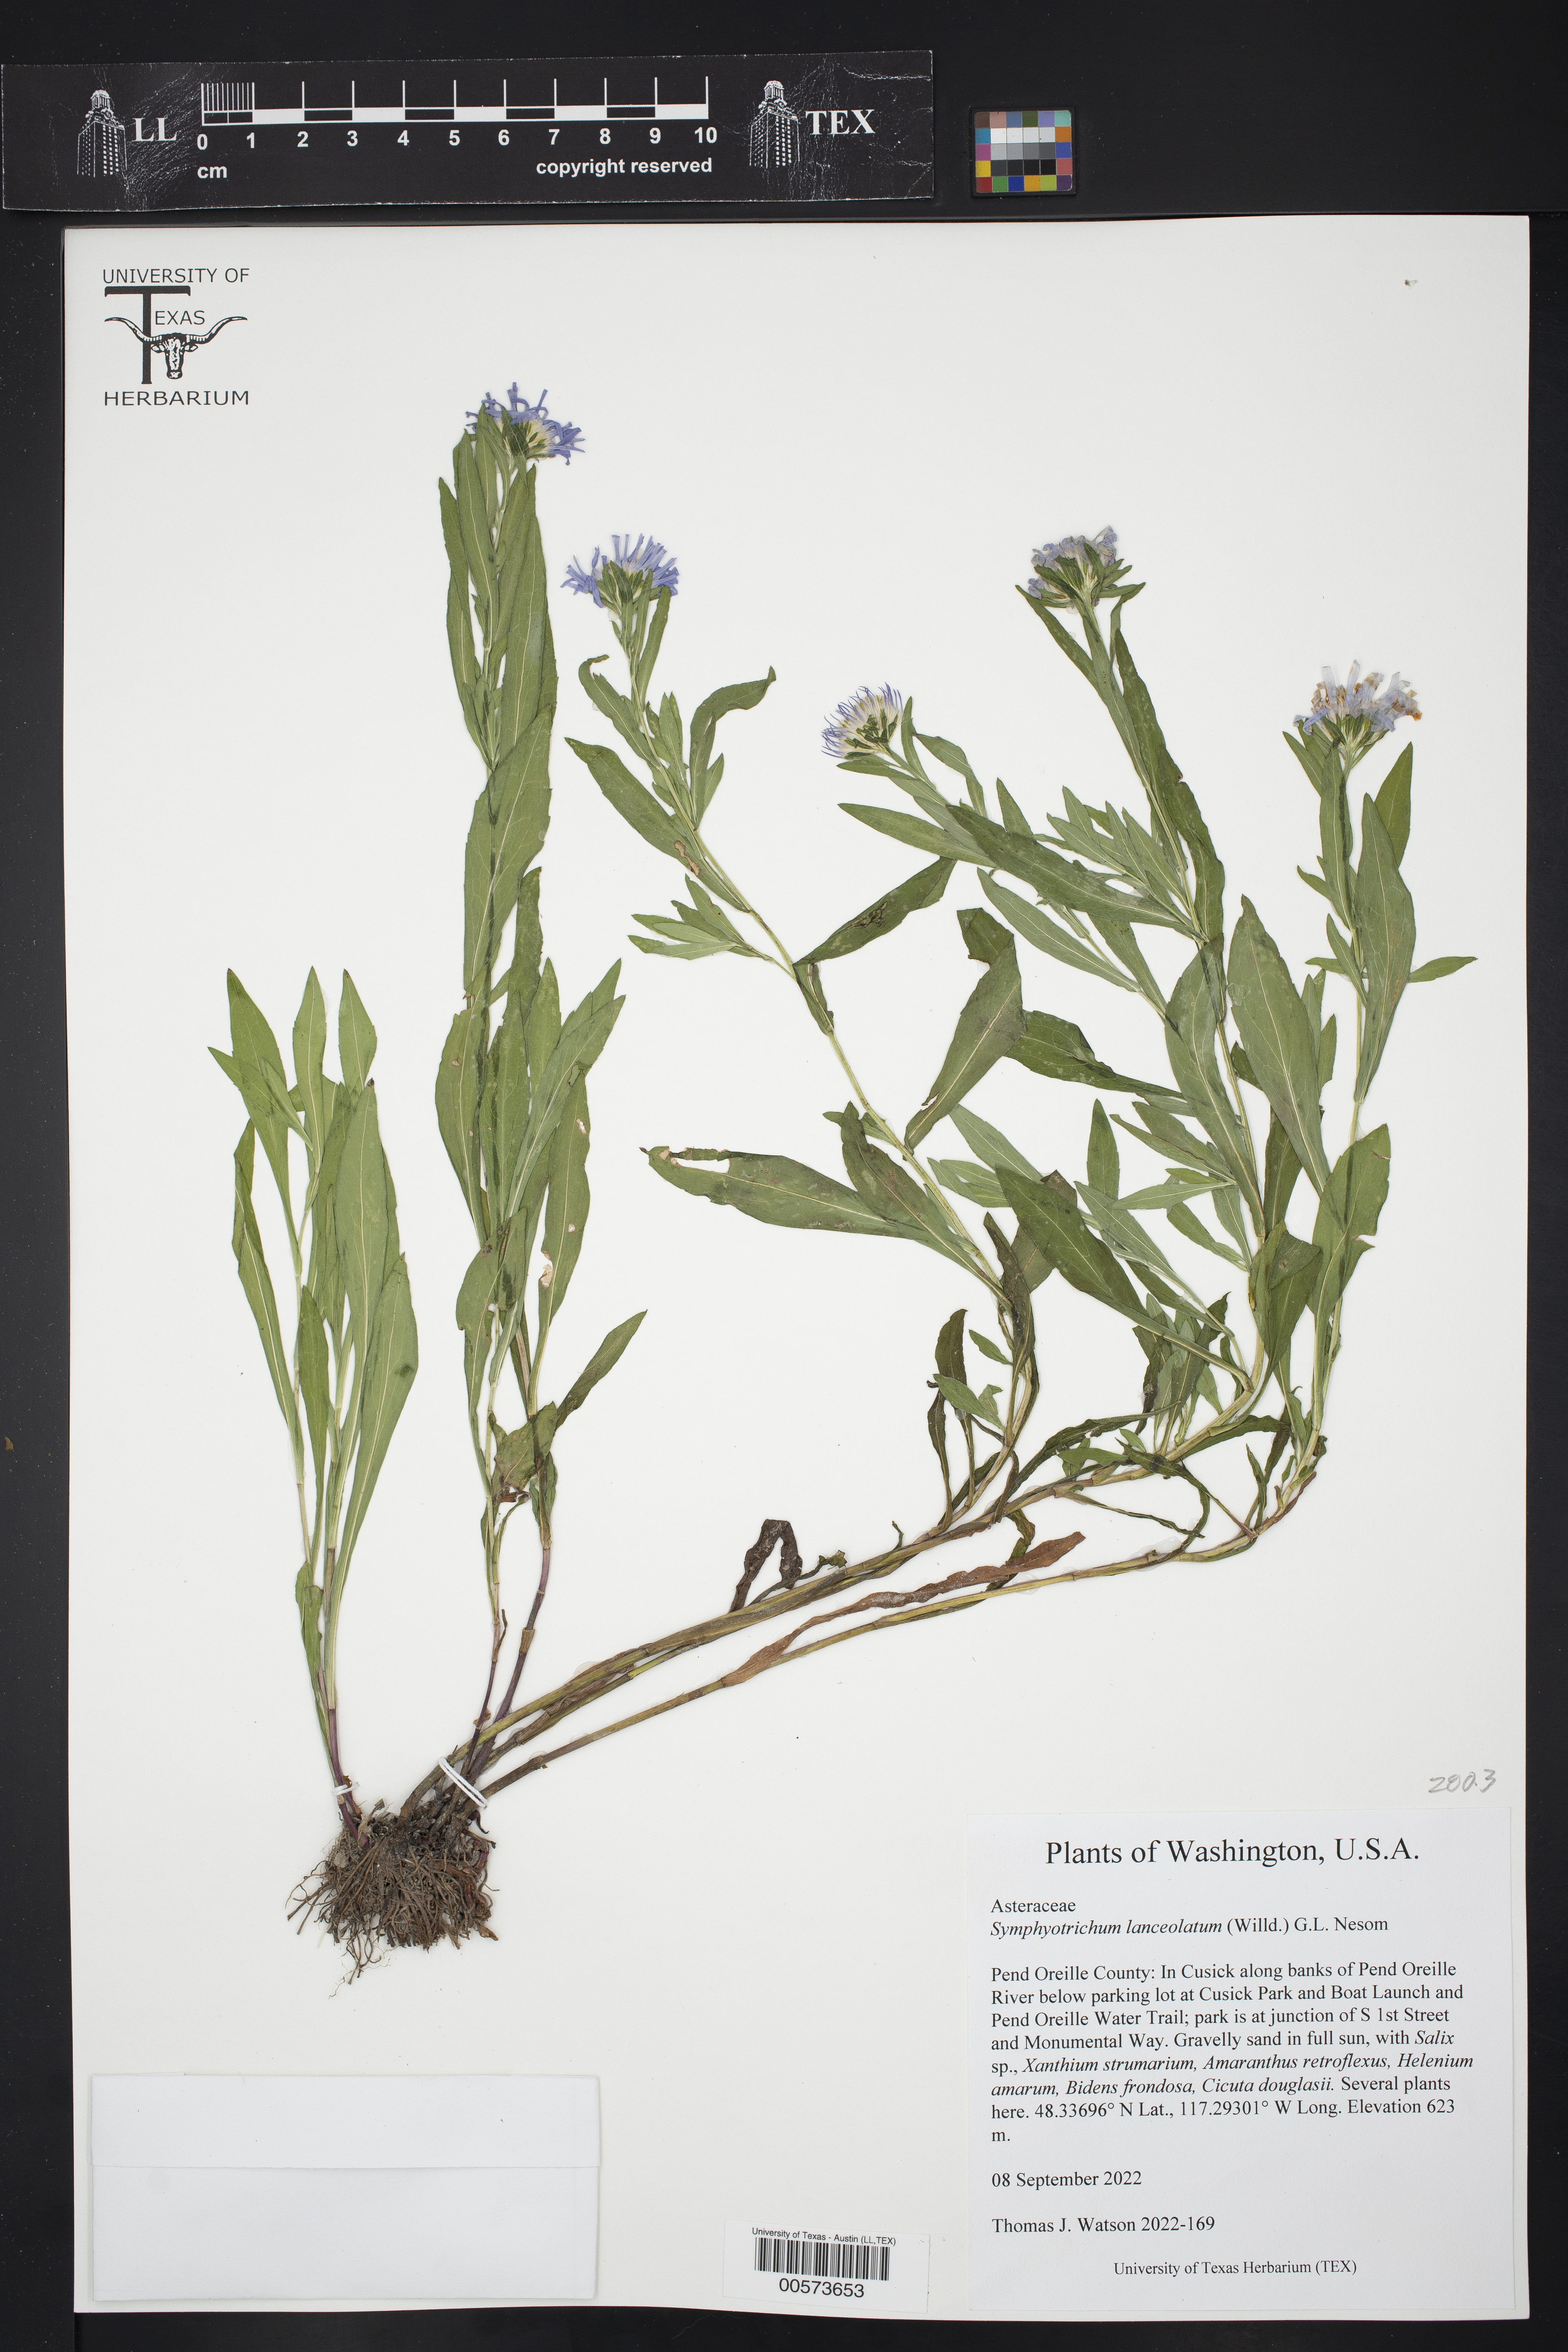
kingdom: Plantae
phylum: Tracheophyta
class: Magnoliopsida
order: Asterales
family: Asteraceae
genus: Symphyotrichum
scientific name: Symphyotrichum lanceolatum
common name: Panicled aster
